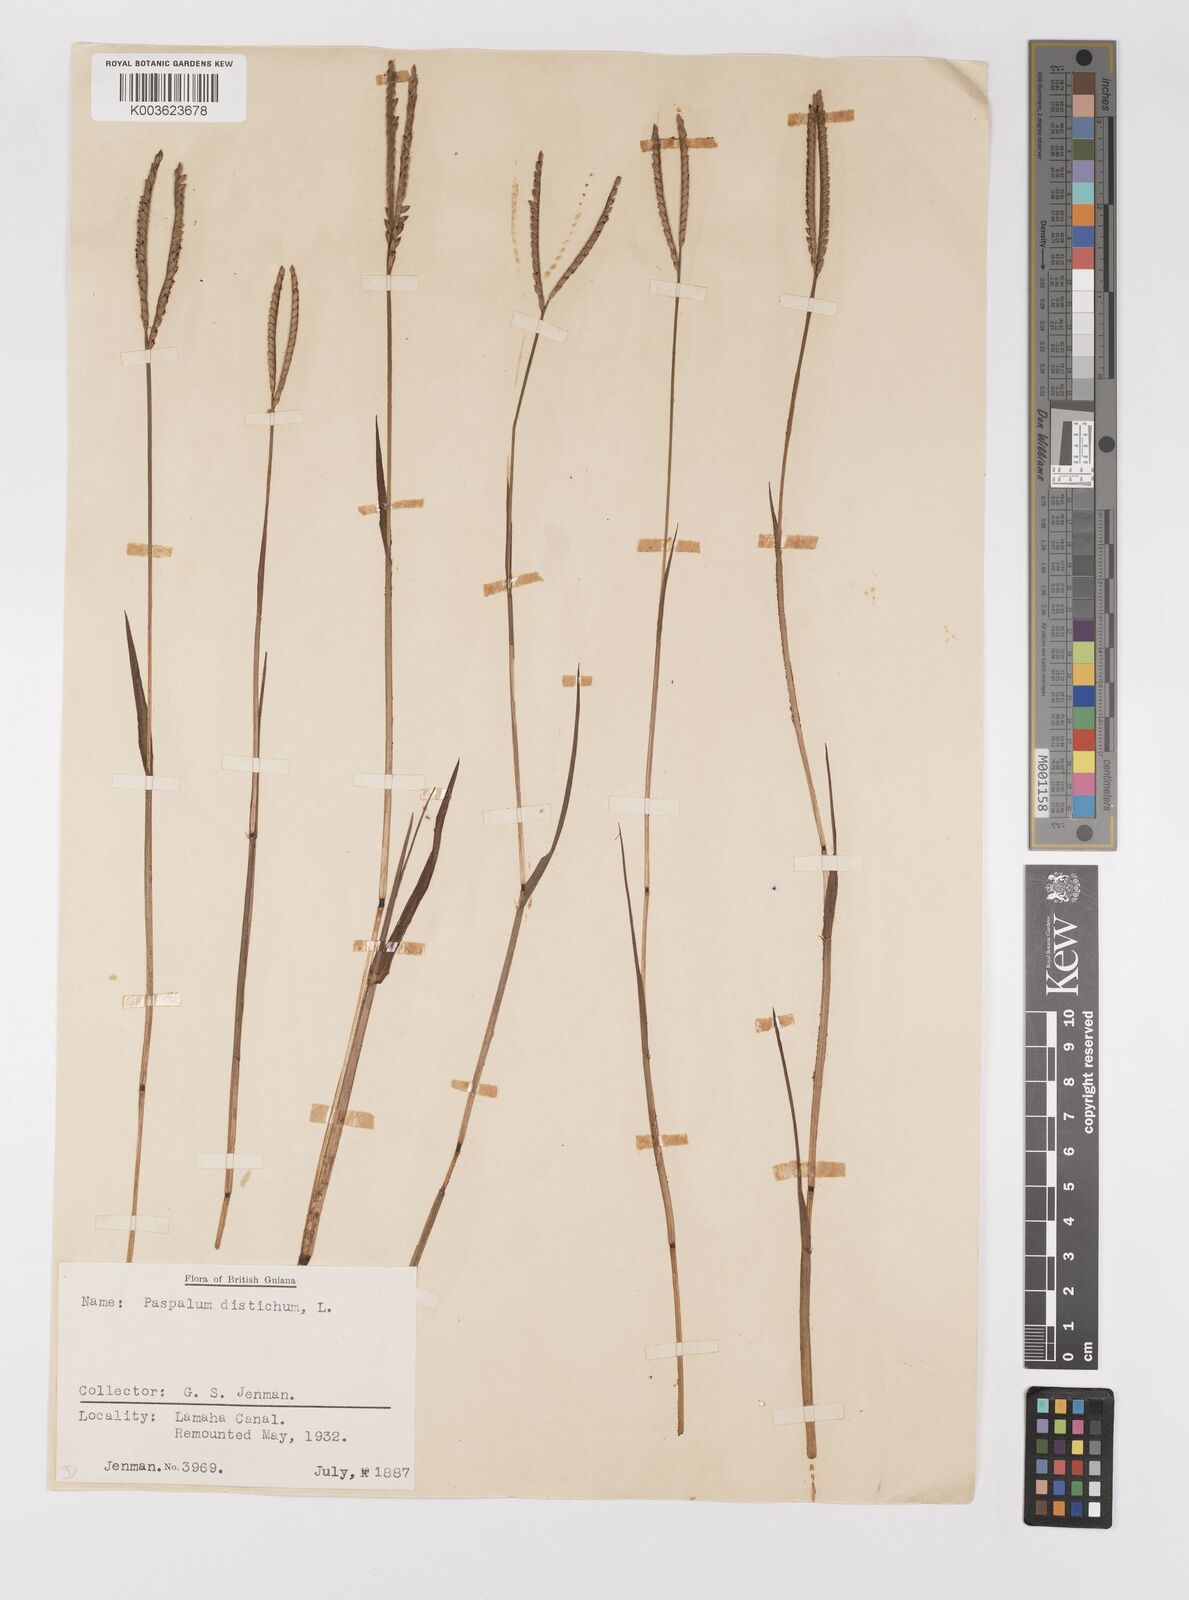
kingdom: Plantae
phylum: Tracheophyta
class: Liliopsida
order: Poales
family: Poaceae
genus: Paspalum
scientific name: Paspalum distichum
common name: Knotgrass
